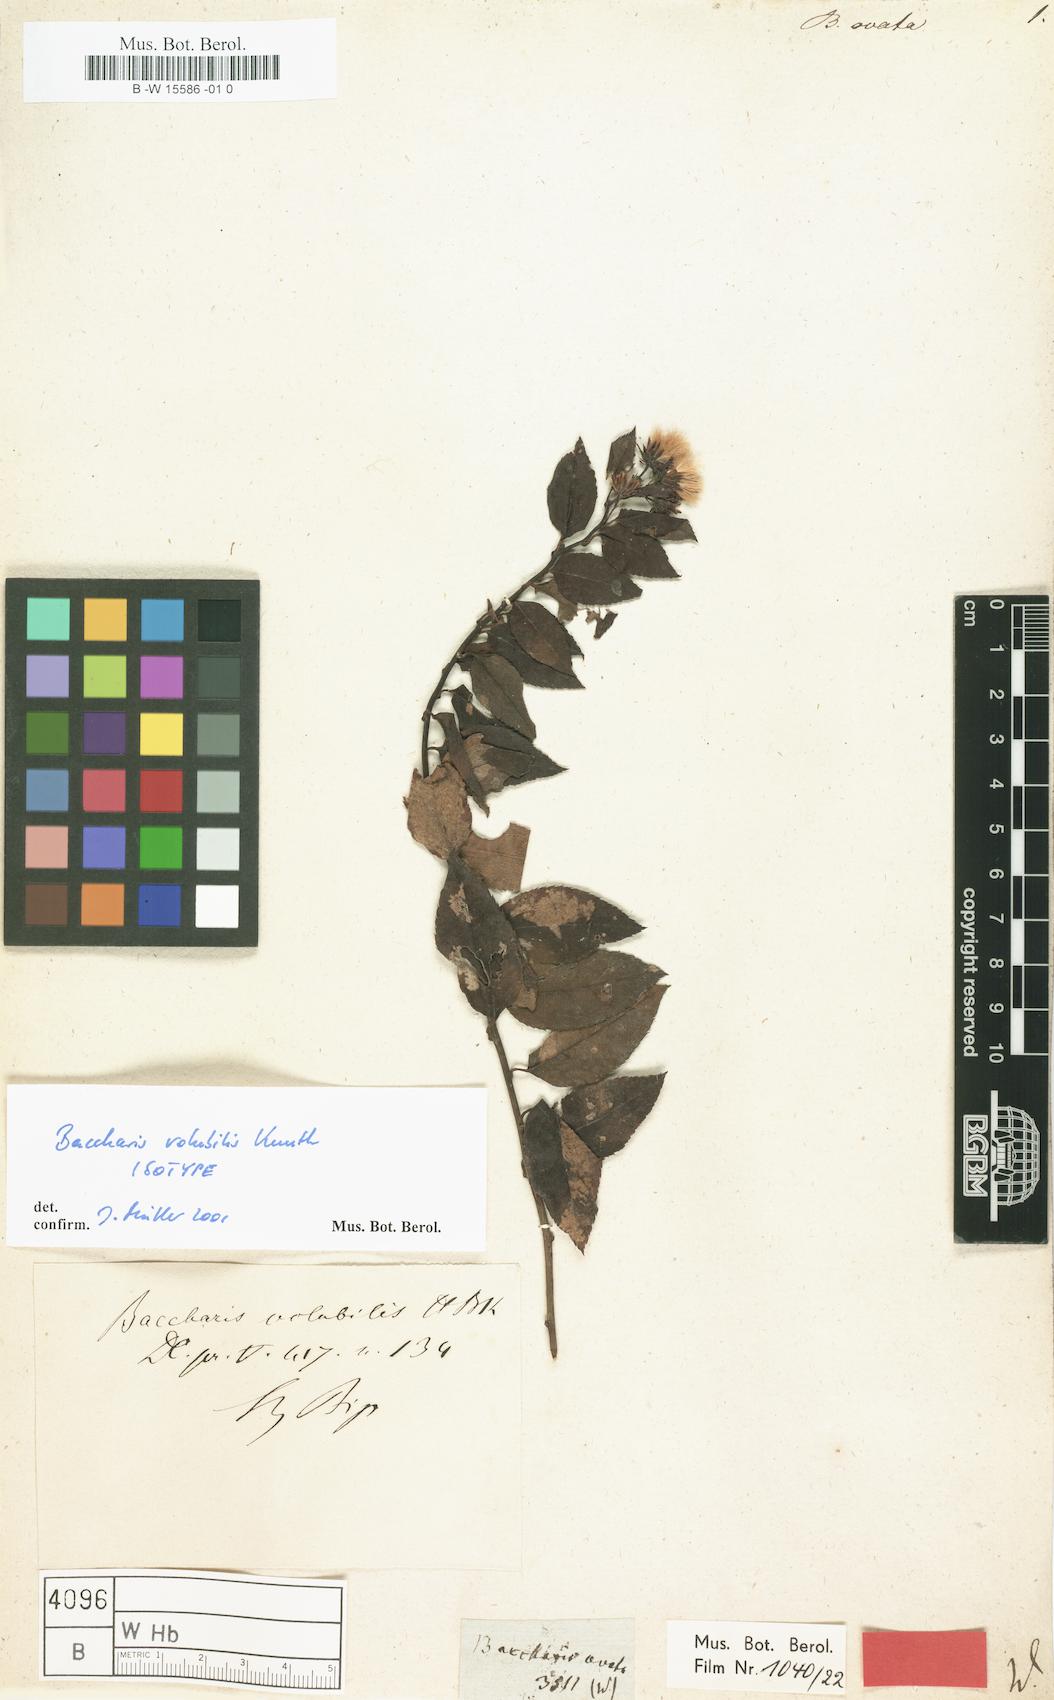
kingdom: Plantae
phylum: Tracheophyta
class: Magnoliopsida
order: Asterales
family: Asteraceae
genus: Baccharis
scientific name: Baccharis ovata
